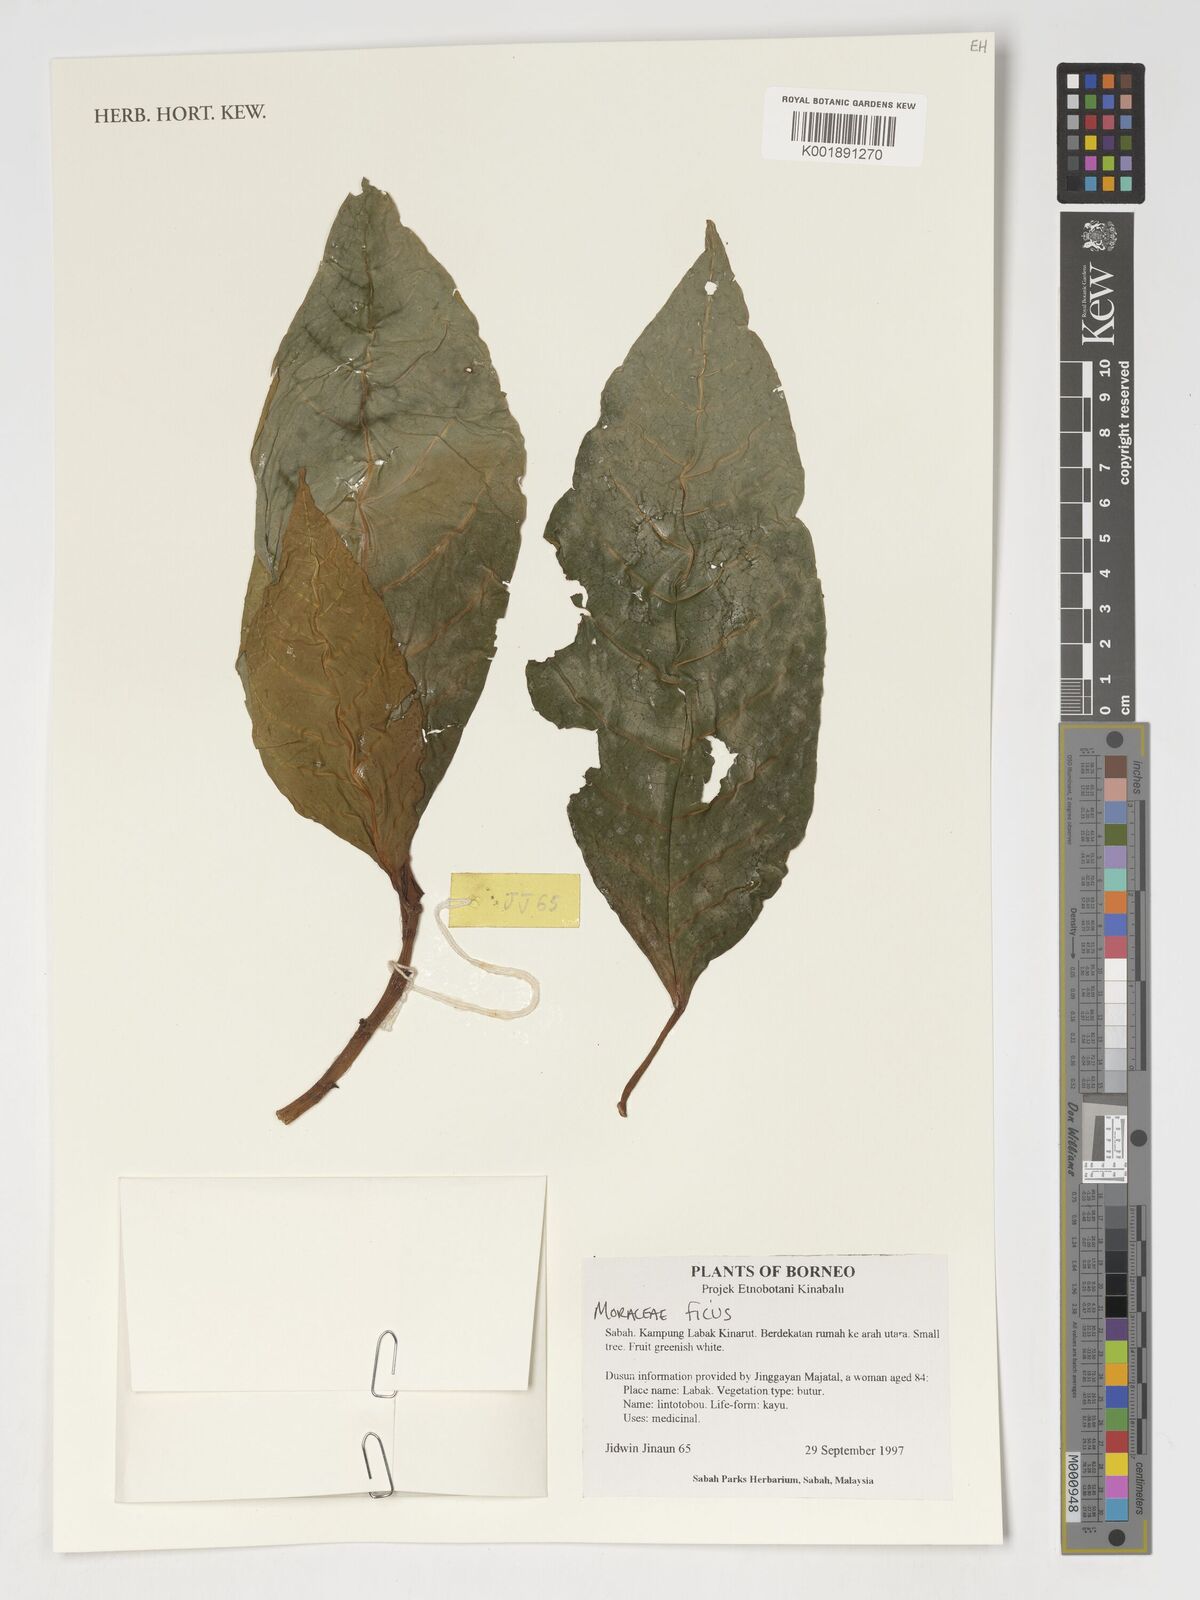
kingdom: Plantae
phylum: Tracheophyta
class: Magnoliopsida
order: Rosales
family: Moraceae
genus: Ficus
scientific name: Ficus
